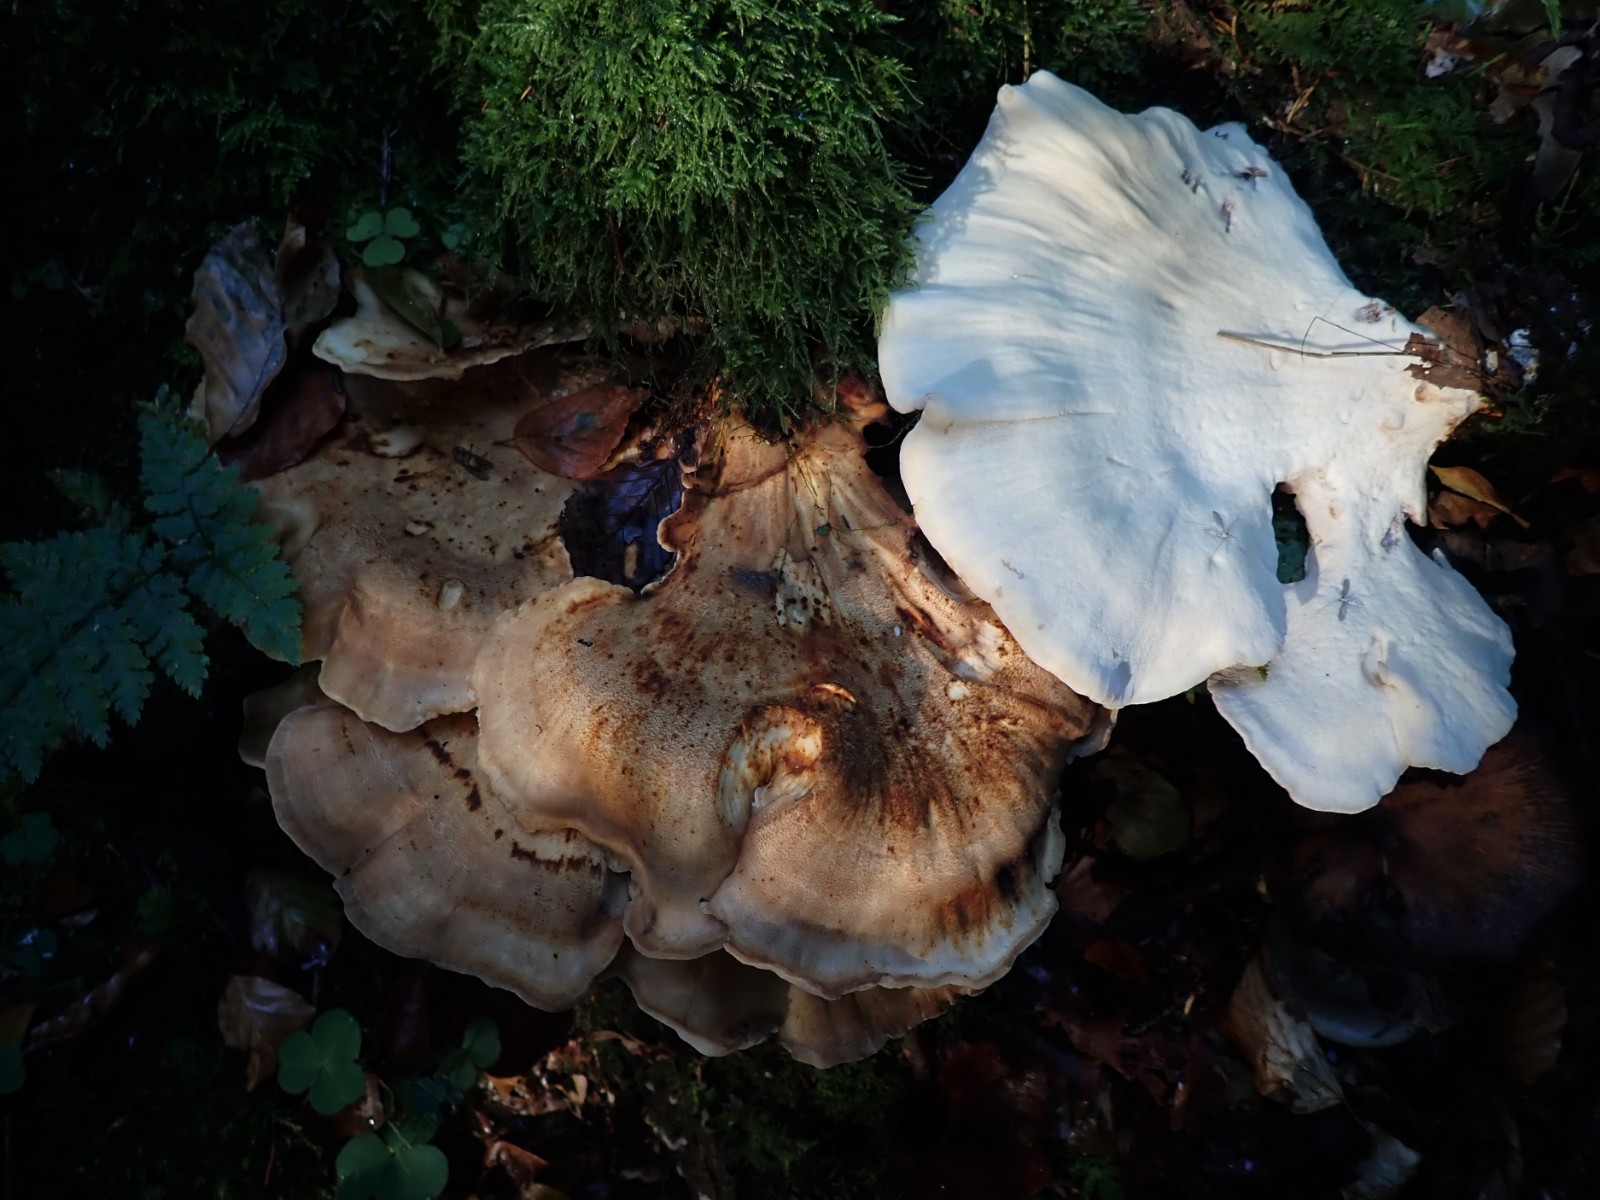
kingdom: Fungi
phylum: Basidiomycota
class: Agaricomycetes
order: Polyporales
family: Meripilaceae
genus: Meripilus
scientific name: Meripilus giganteus
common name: kæmpeporesvamp
